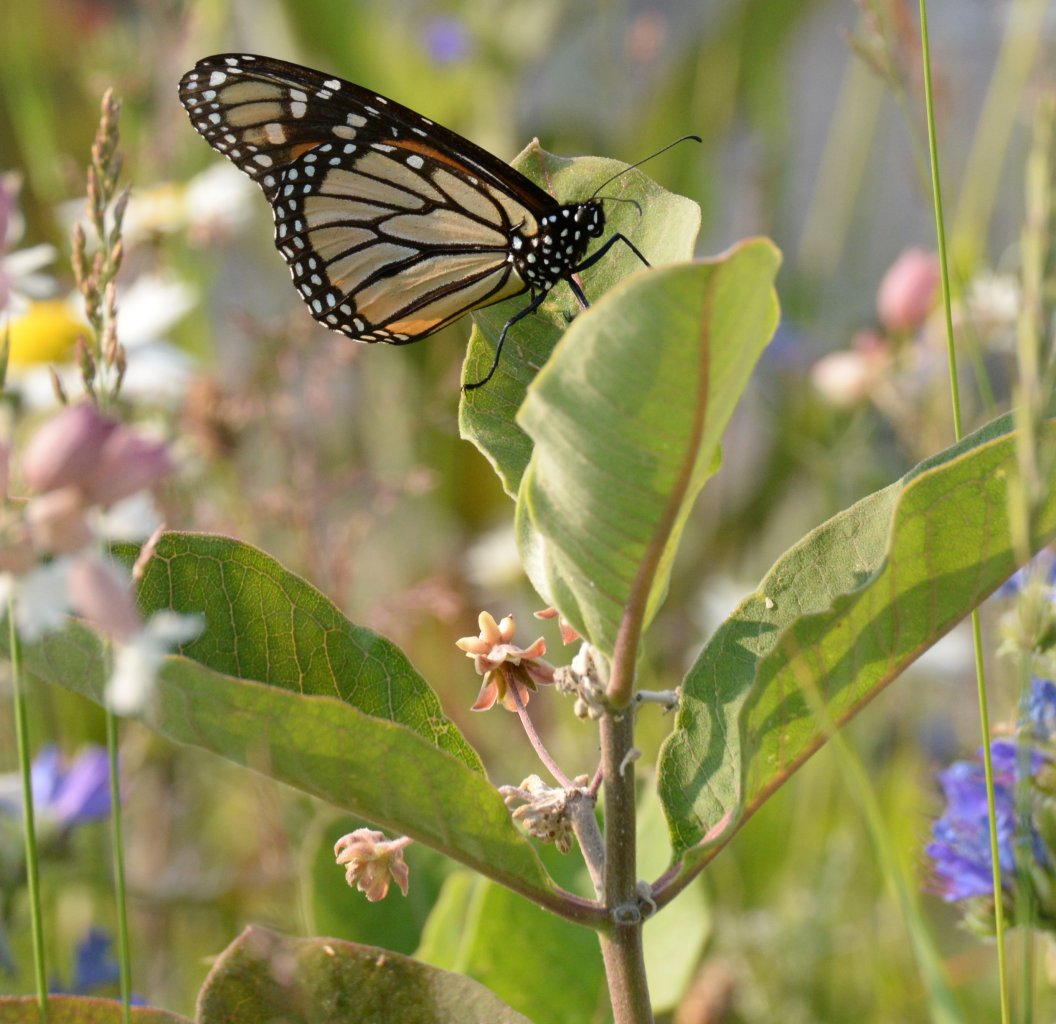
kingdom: Animalia
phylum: Arthropoda
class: Insecta
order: Lepidoptera
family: Nymphalidae
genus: Danaus
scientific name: Danaus plexippus
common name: Monarch
